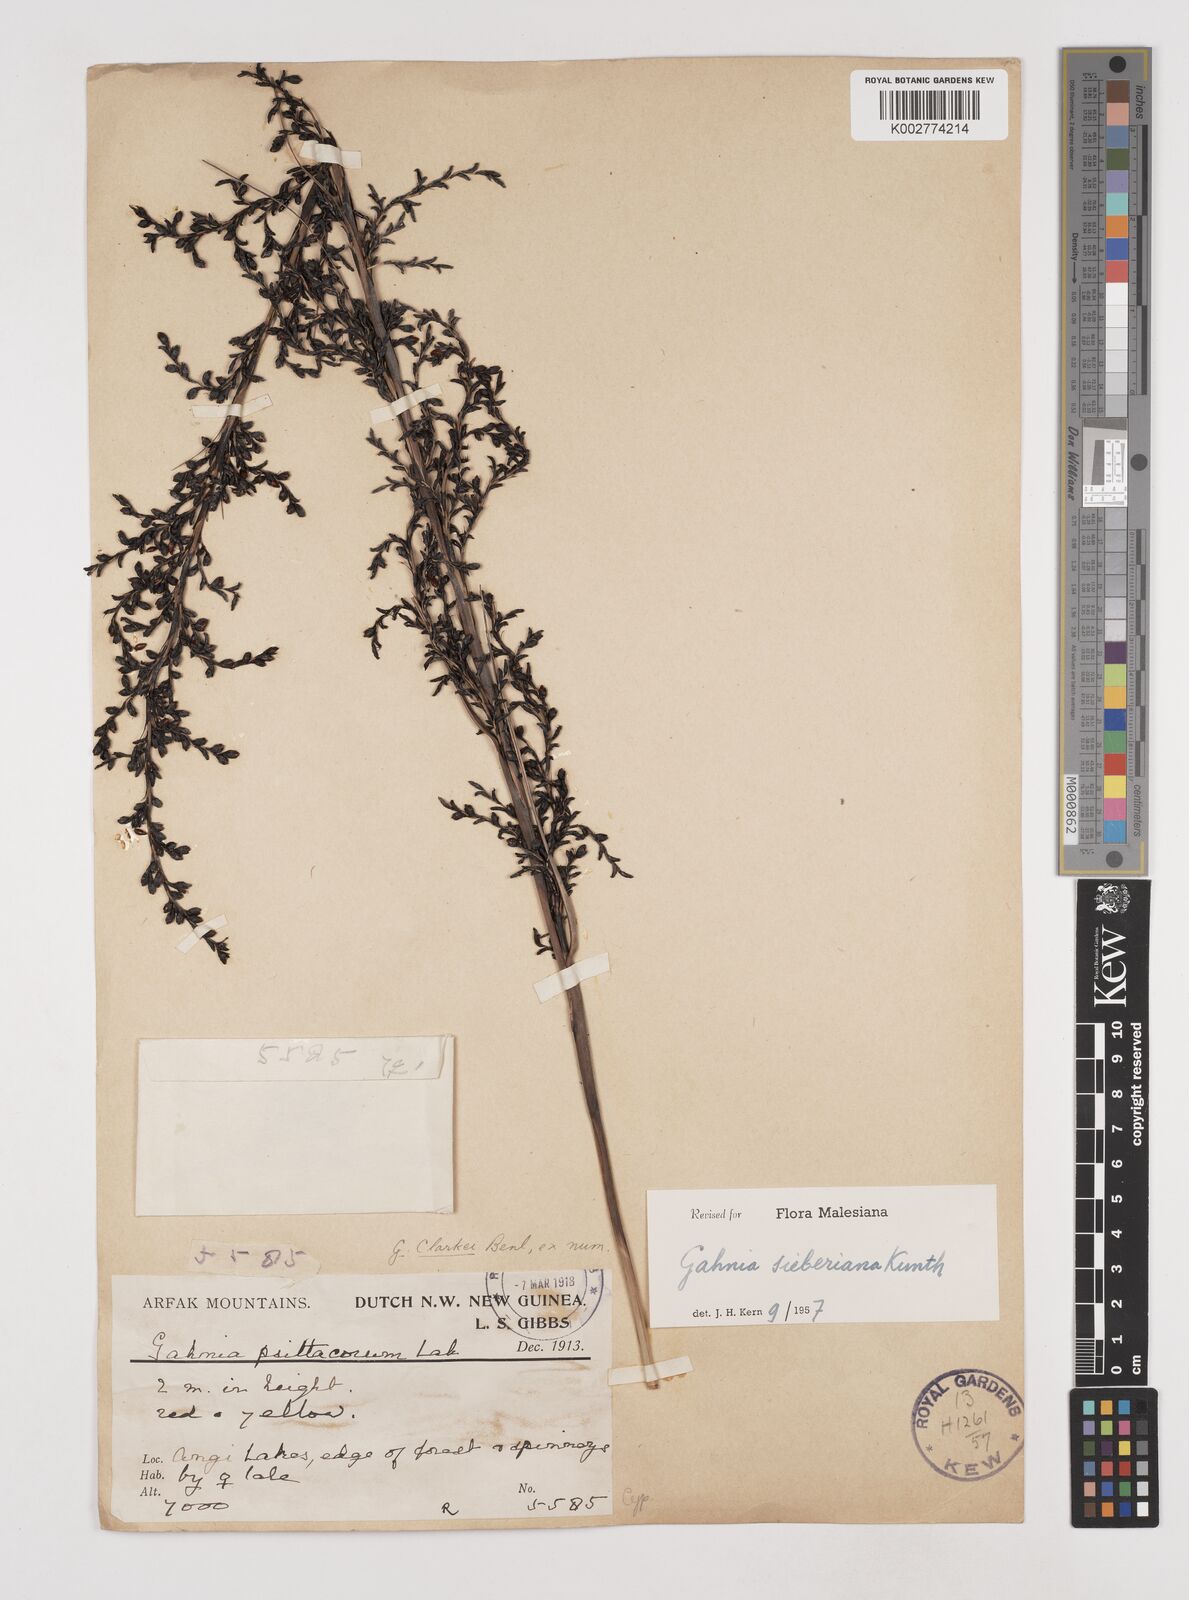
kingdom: Plantae
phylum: Tracheophyta
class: Liliopsida
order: Poales
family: Cyperaceae
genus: Gahnia
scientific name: Gahnia sieberiana
